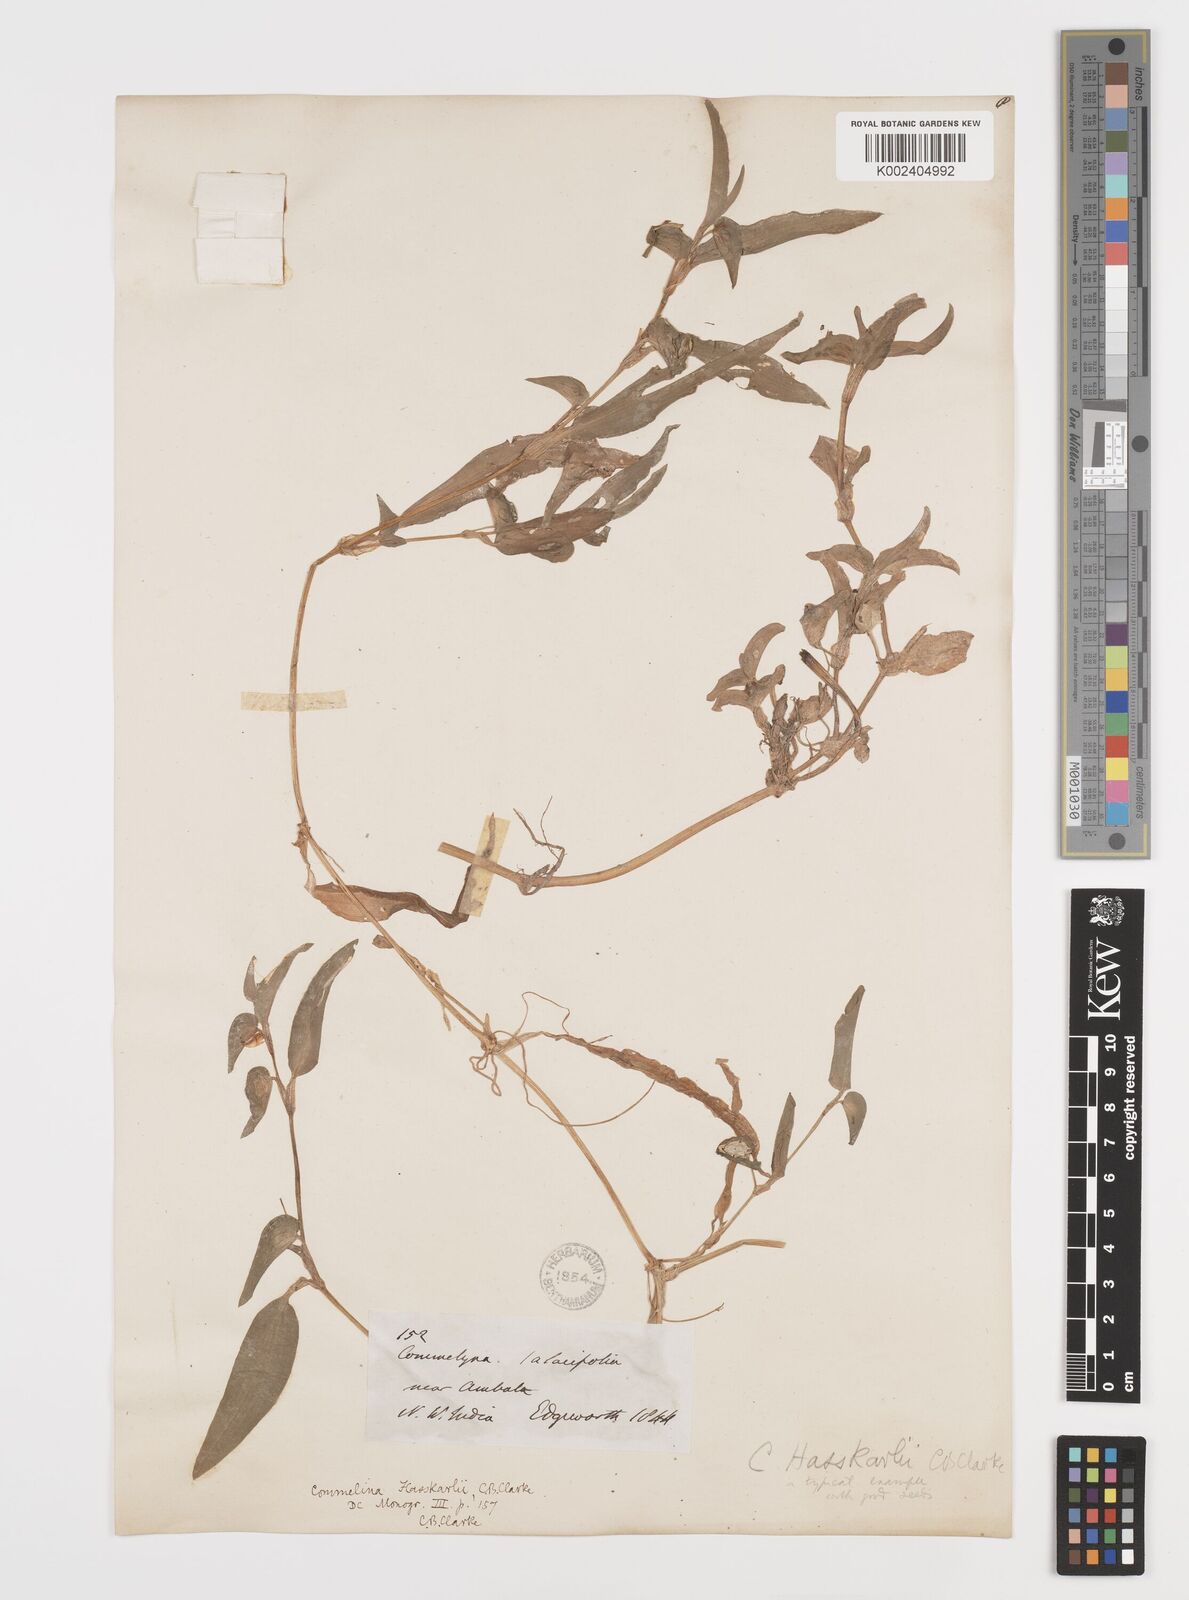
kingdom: Plantae
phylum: Tracheophyta
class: Liliopsida
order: Commelinales
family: Commelinaceae
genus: Commelina
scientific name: Commelina caroliniana
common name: Carolina dayflower
